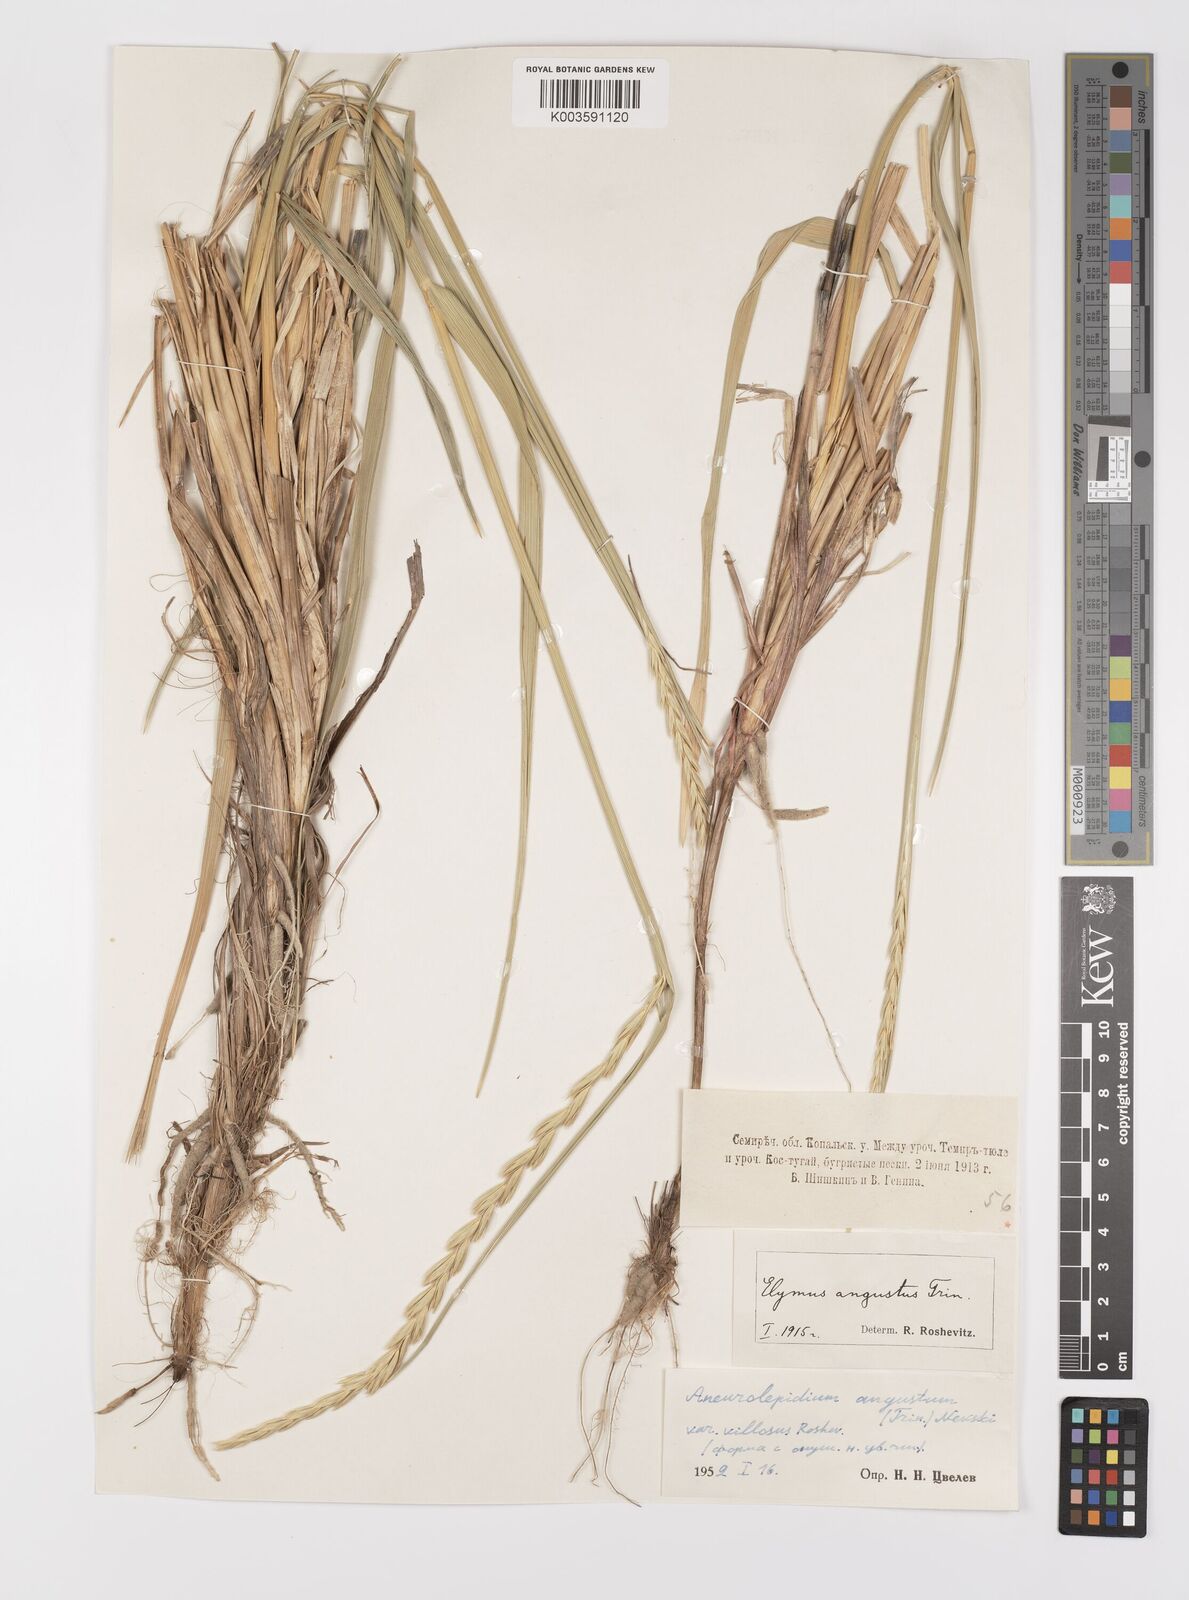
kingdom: Plantae
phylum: Tracheophyta
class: Liliopsida
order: Poales
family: Poaceae
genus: Leymus
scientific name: Leymus angustus
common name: Altai wildrye
